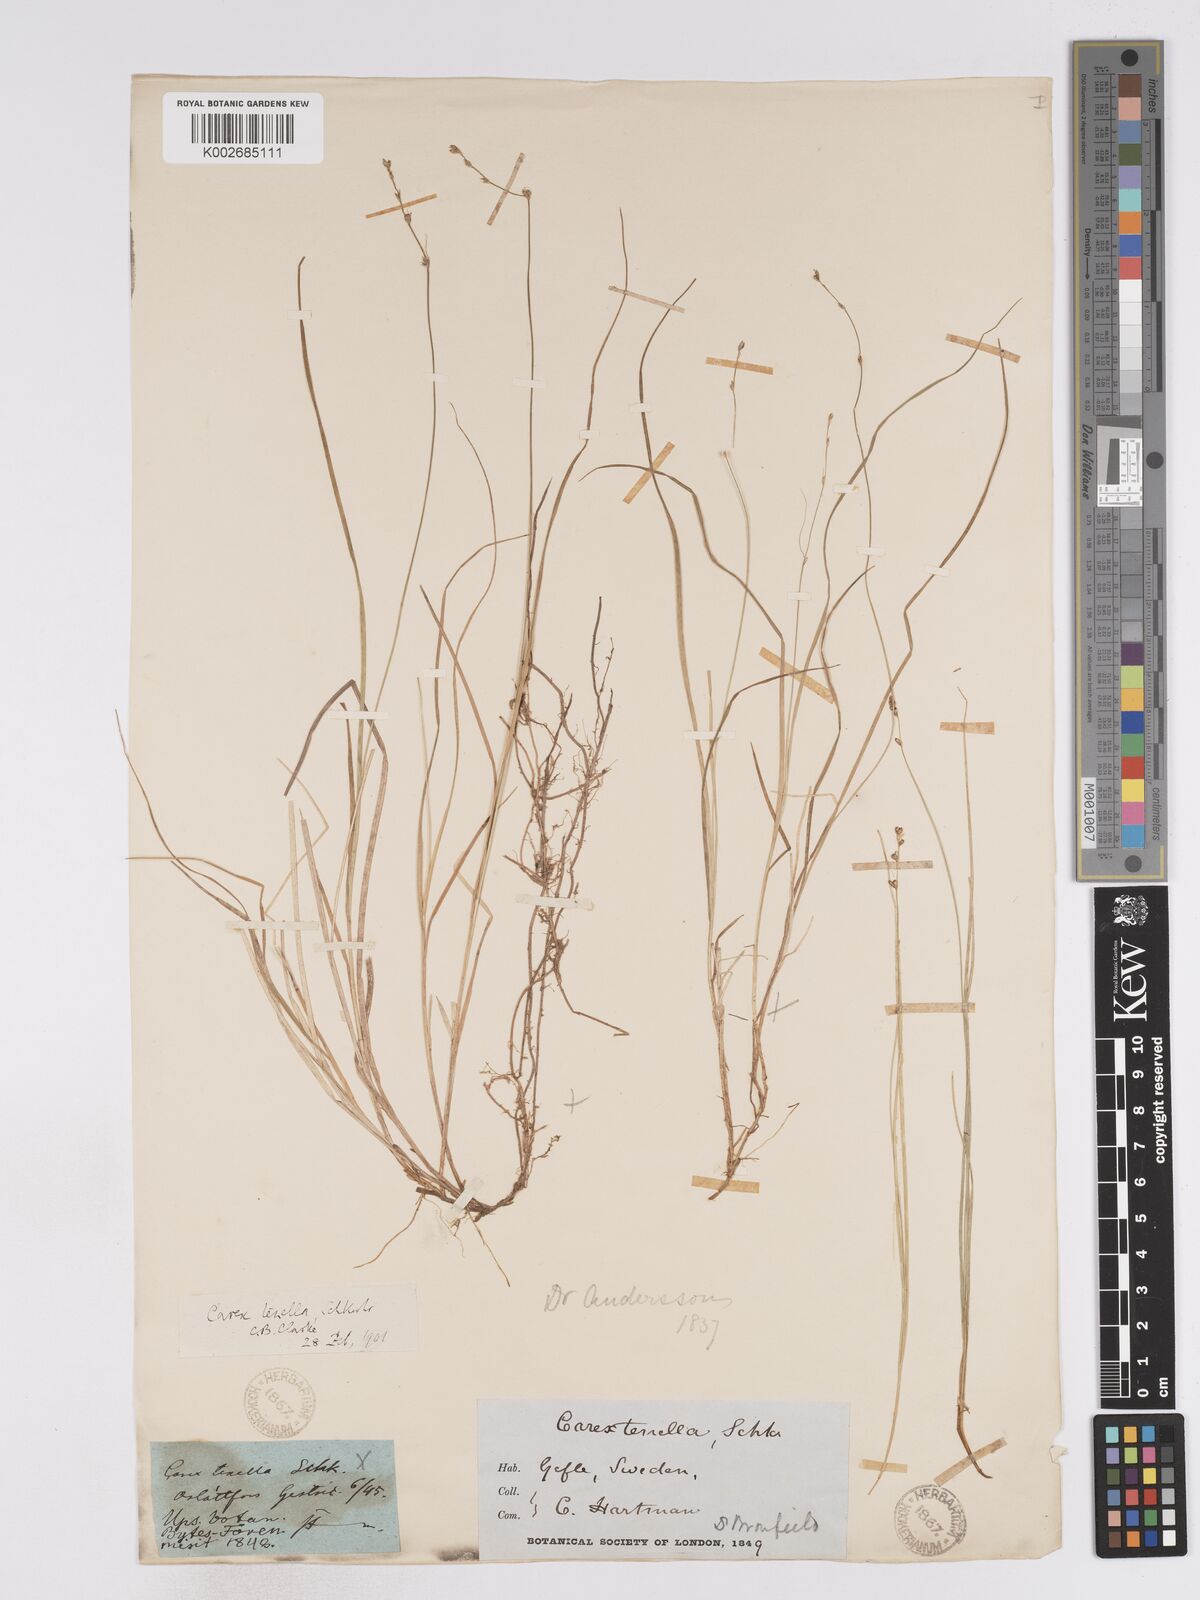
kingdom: Plantae
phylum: Tracheophyta
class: Liliopsida
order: Poales
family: Cyperaceae
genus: Carex
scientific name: Carex disperma
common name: Short-leaved sedge
